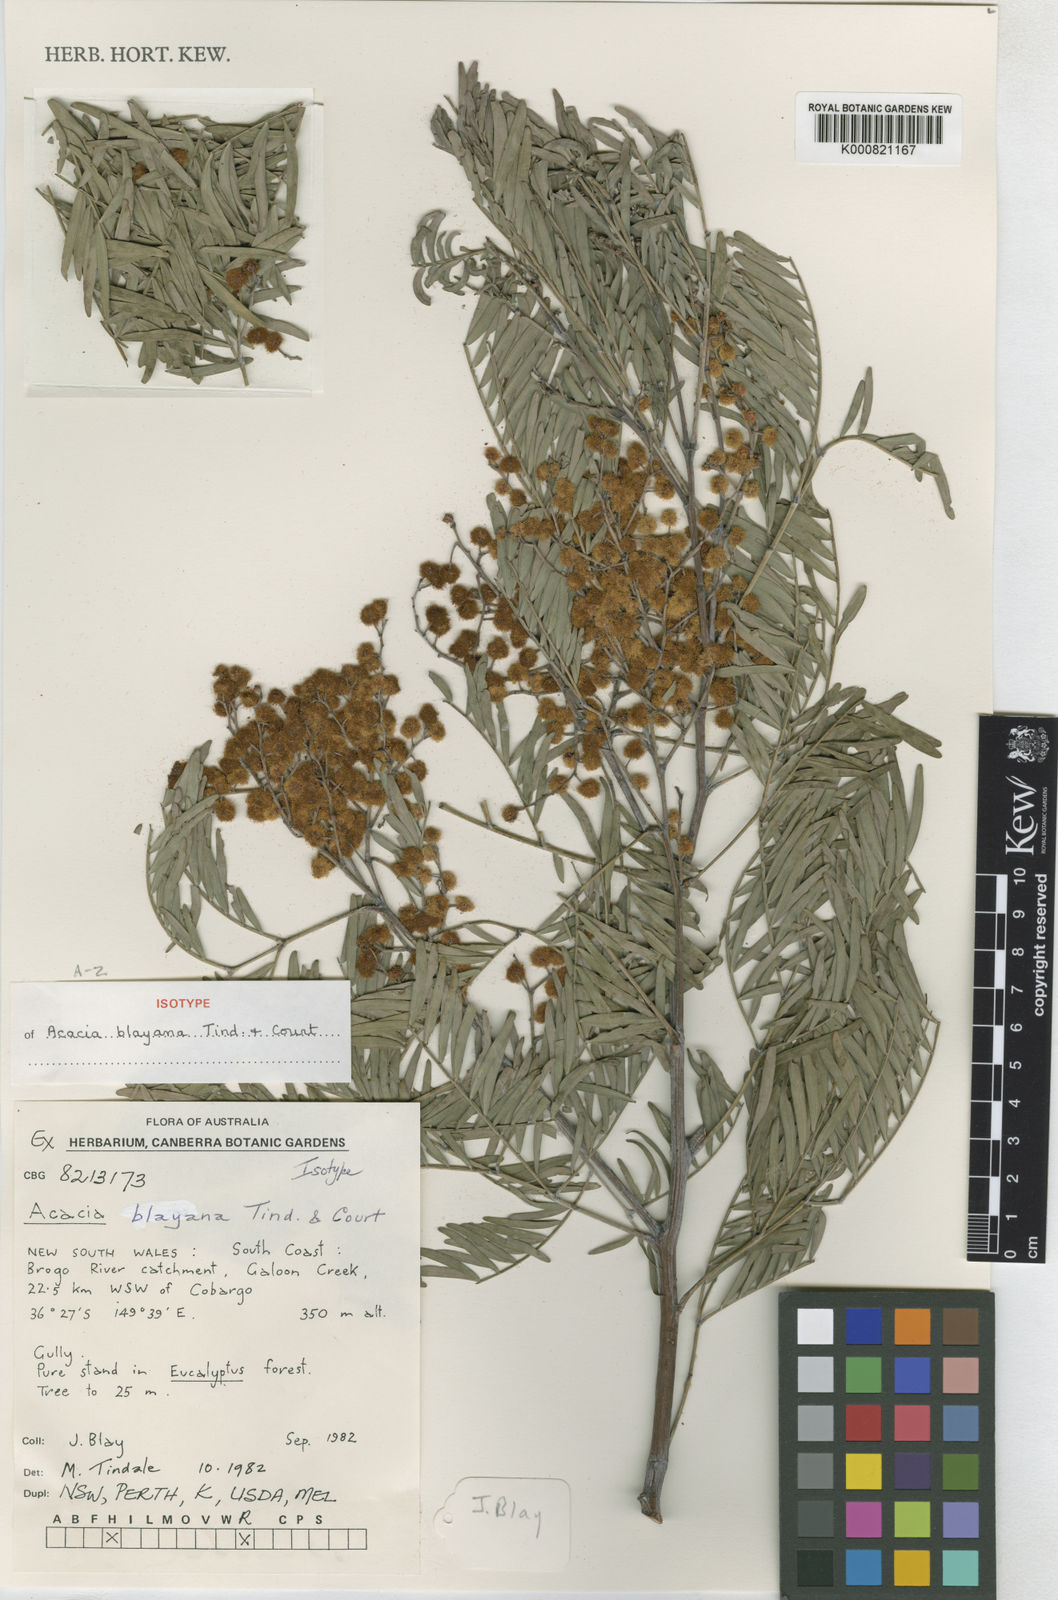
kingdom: Plantae
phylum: Tracheophyta
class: Magnoliopsida
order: Fabales
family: Fabaceae
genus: Acacia
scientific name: Acacia blayana
